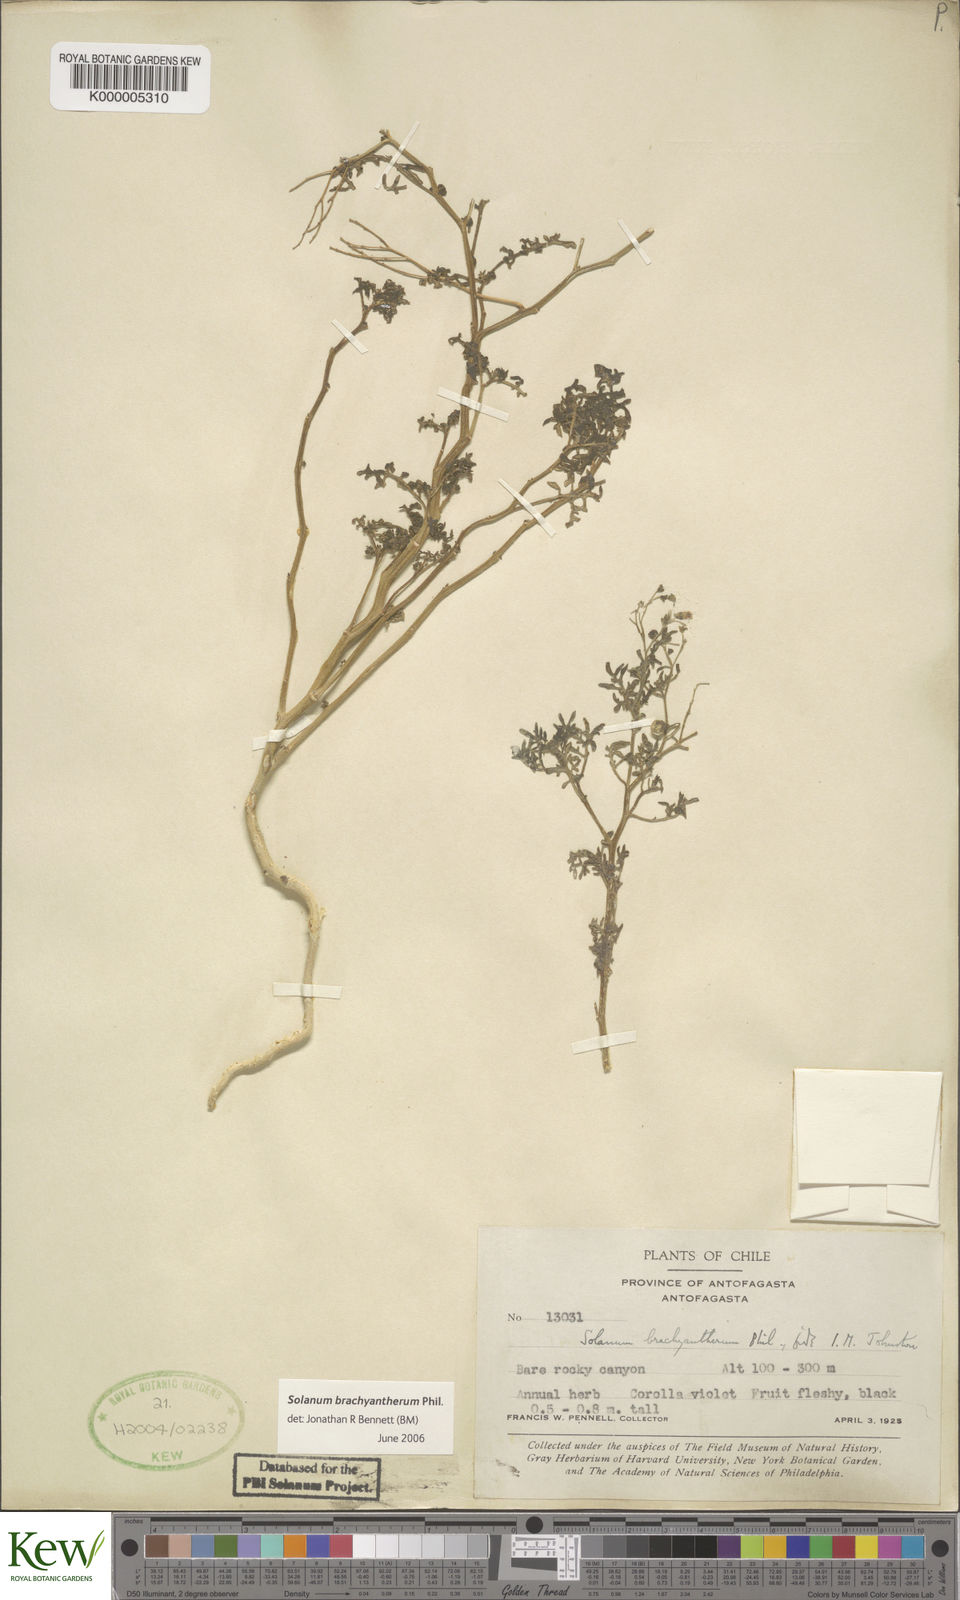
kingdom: Plantae
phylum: Tracheophyta
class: Magnoliopsida
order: Solanales
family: Solanaceae
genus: Solanum
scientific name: Solanum brachyantherum
